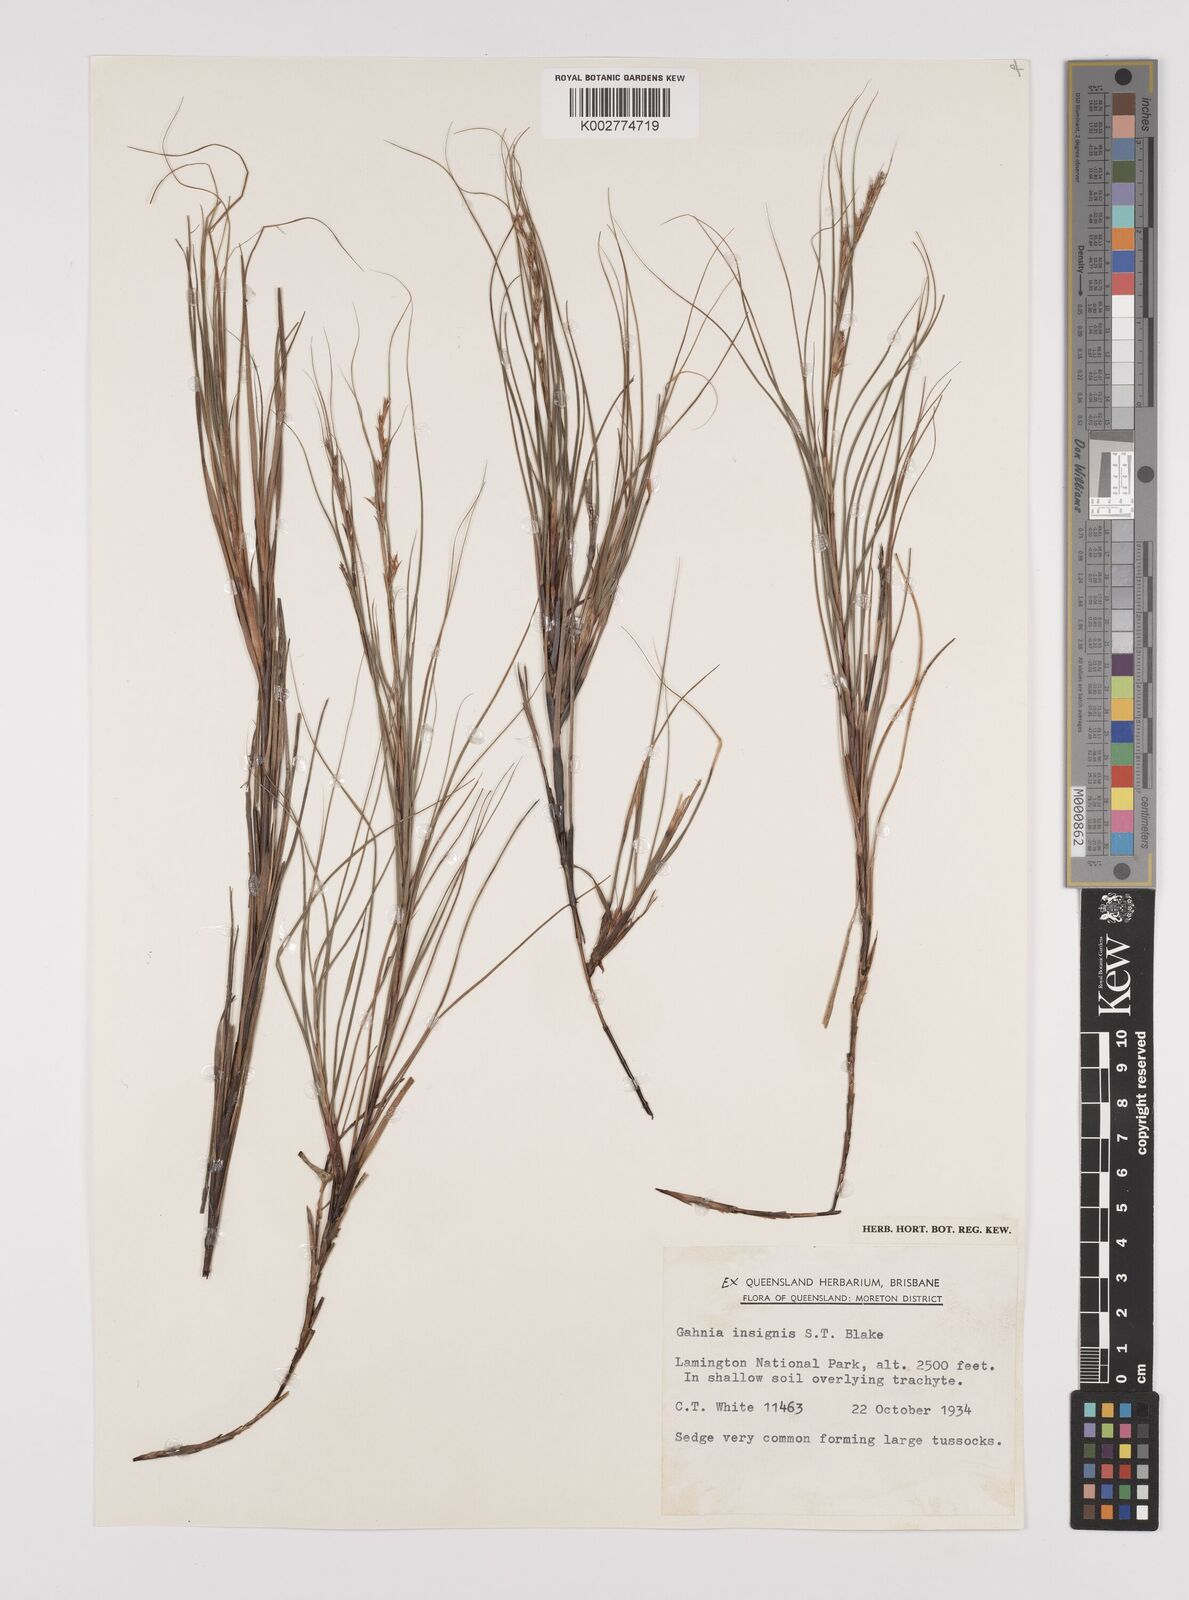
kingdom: Plantae
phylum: Tracheophyta
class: Liliopsida
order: Poales
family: Cyperaceae
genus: Gahnia
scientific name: Gahnia insignis
